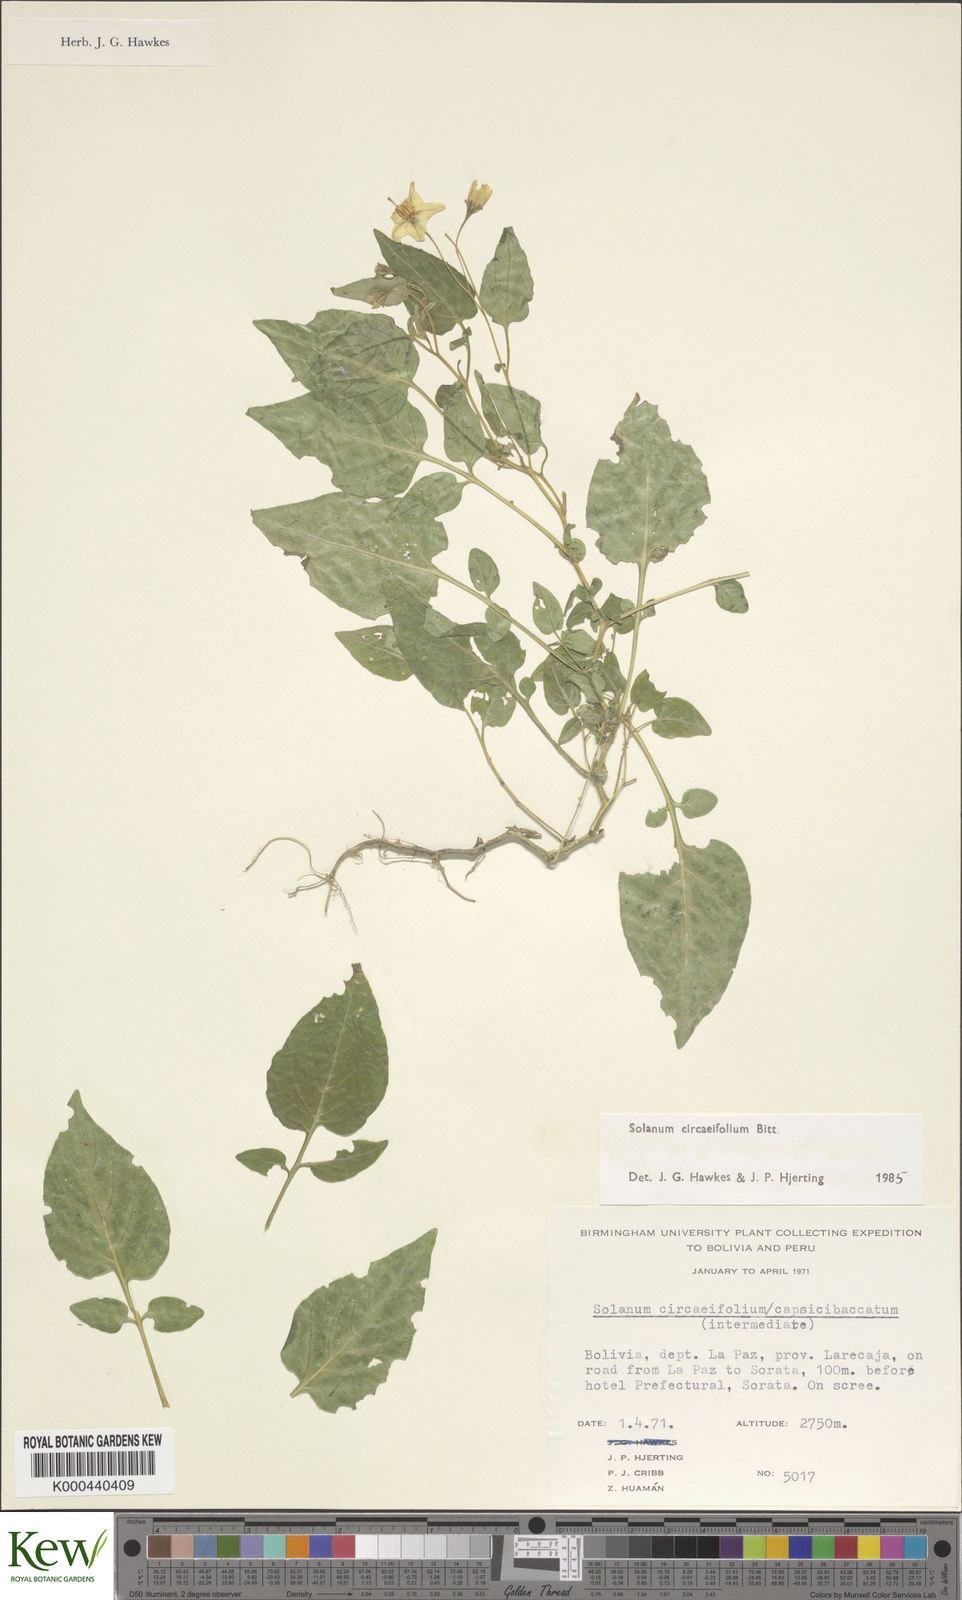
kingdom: Plantae
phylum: Tracheophyta
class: Magnoliopsida
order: Solanales
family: Solanaceae
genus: Solanum
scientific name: Solanum stipuloideum
